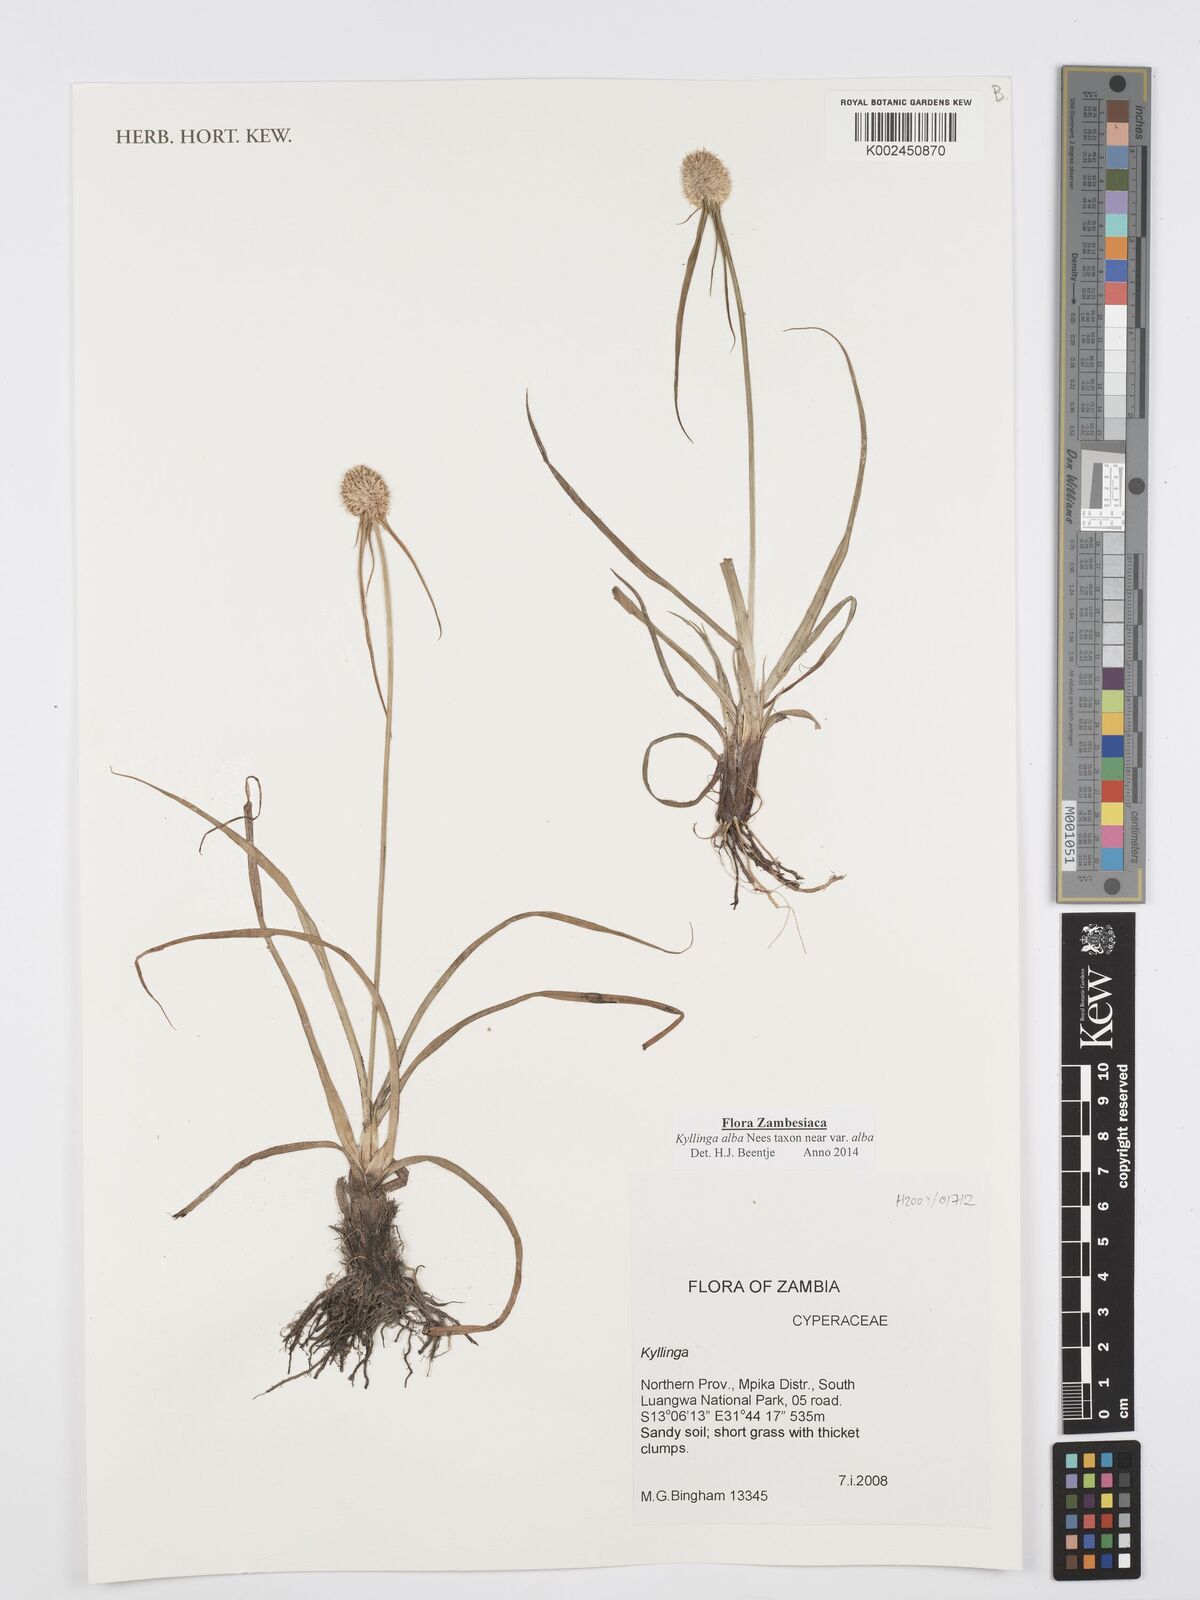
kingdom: Plantae
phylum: Tracheophyta
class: Liliopsida
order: Poales
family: Cyperaceae
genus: Cyperus
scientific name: Cyperus
